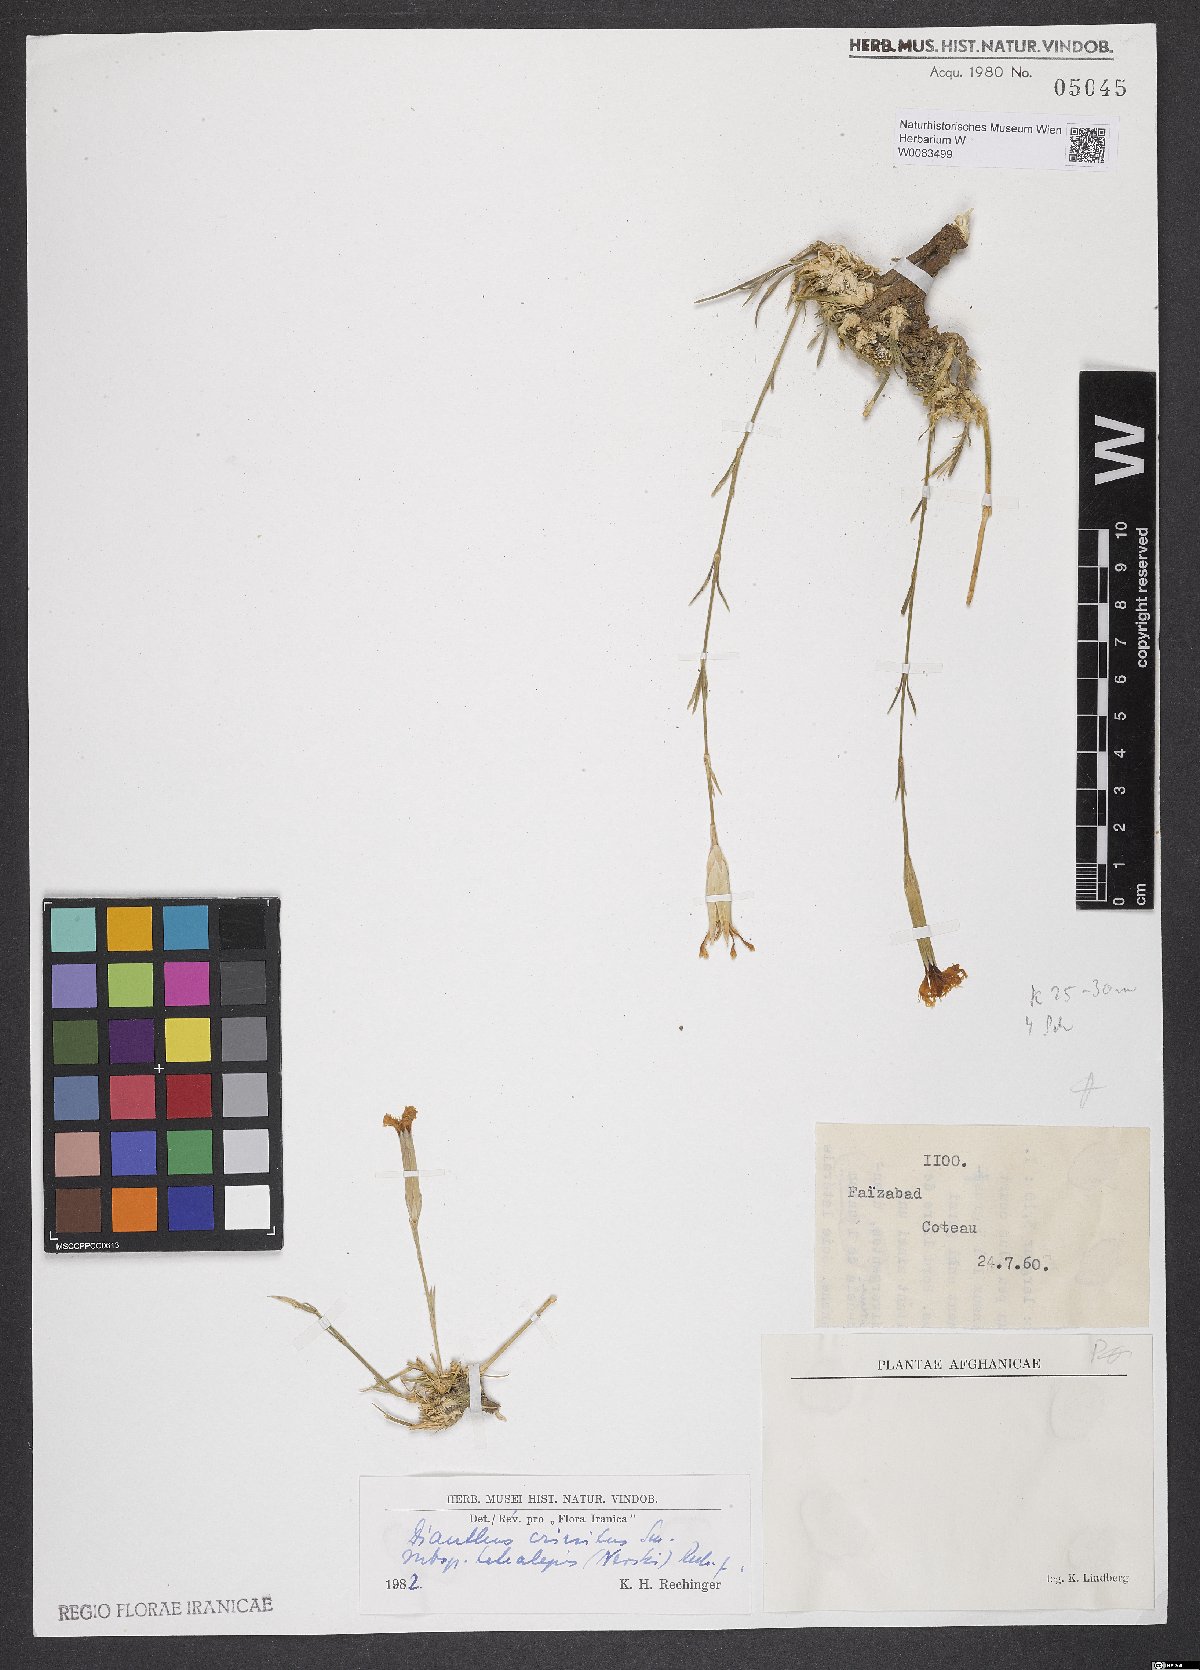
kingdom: Plantae
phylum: Tracheophyta
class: Magnoliopsida
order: Caryophyllales
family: Caryophyllaceae
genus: Dianthus
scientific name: Dianthus crinitus
